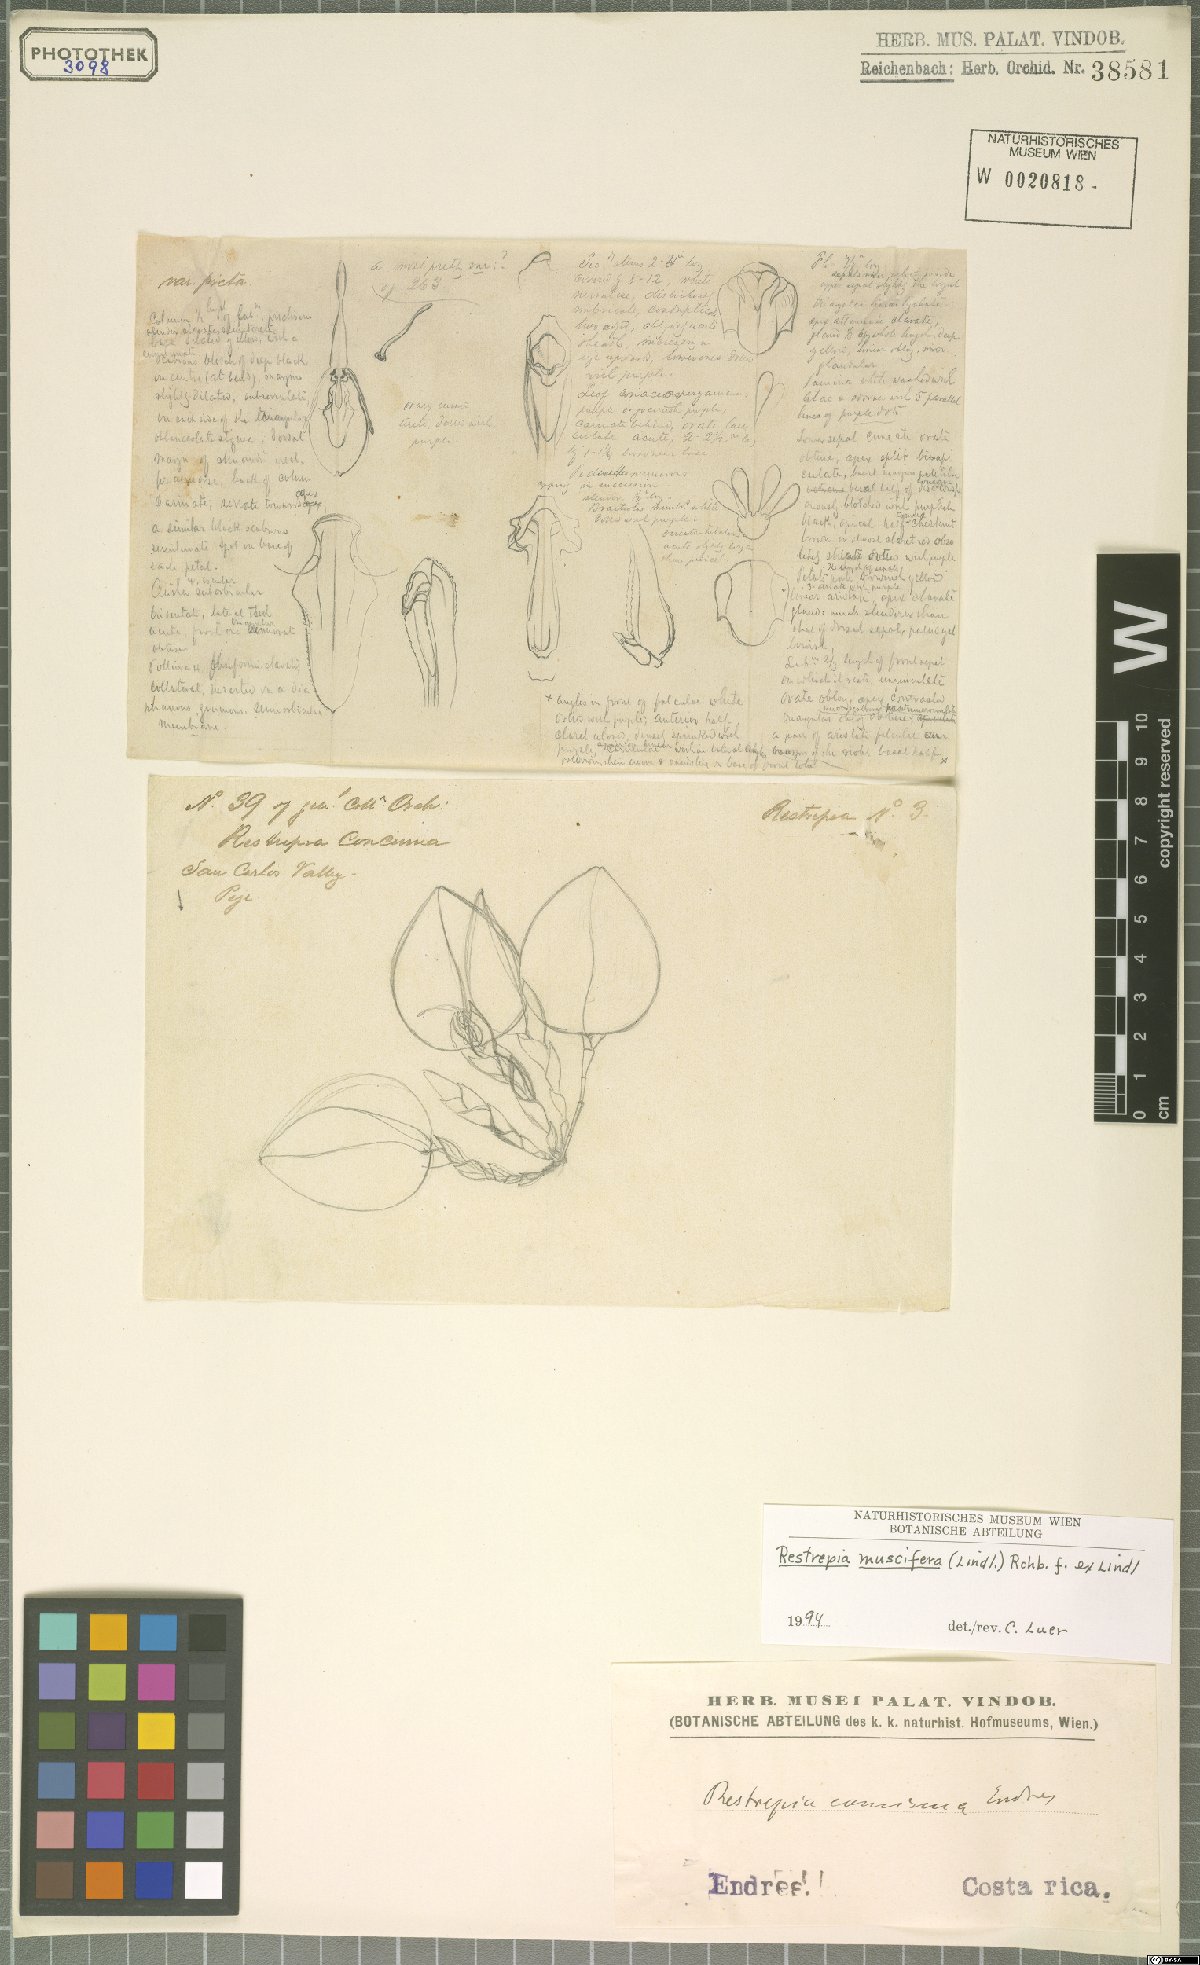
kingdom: Plantae
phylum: Tracheophyta
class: Liliopsida
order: Asparagales
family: Orchidaceae
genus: Restrepia
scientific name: Restrepia muscifera
